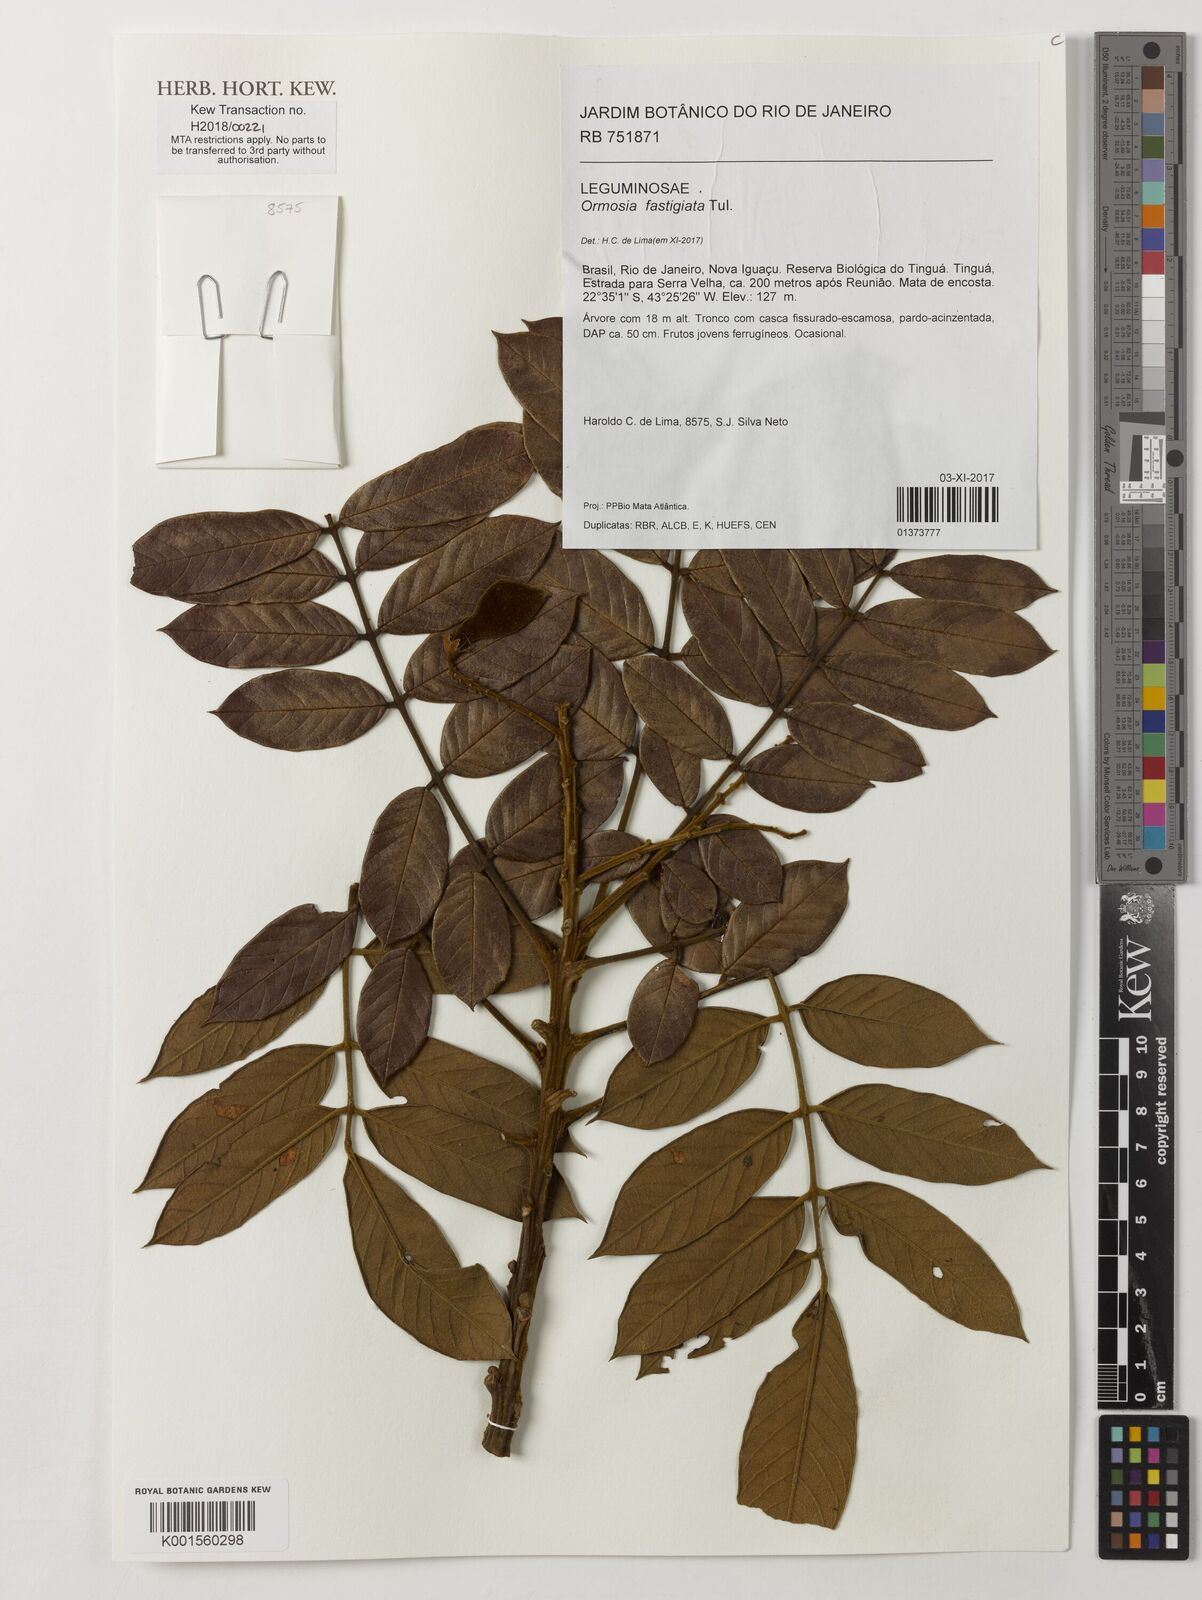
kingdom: Plantae
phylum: Tracheophyta
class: Magnoliopsida
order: Fabales
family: Fabaceae
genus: Ormosia
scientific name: Ormosia fastigiata
